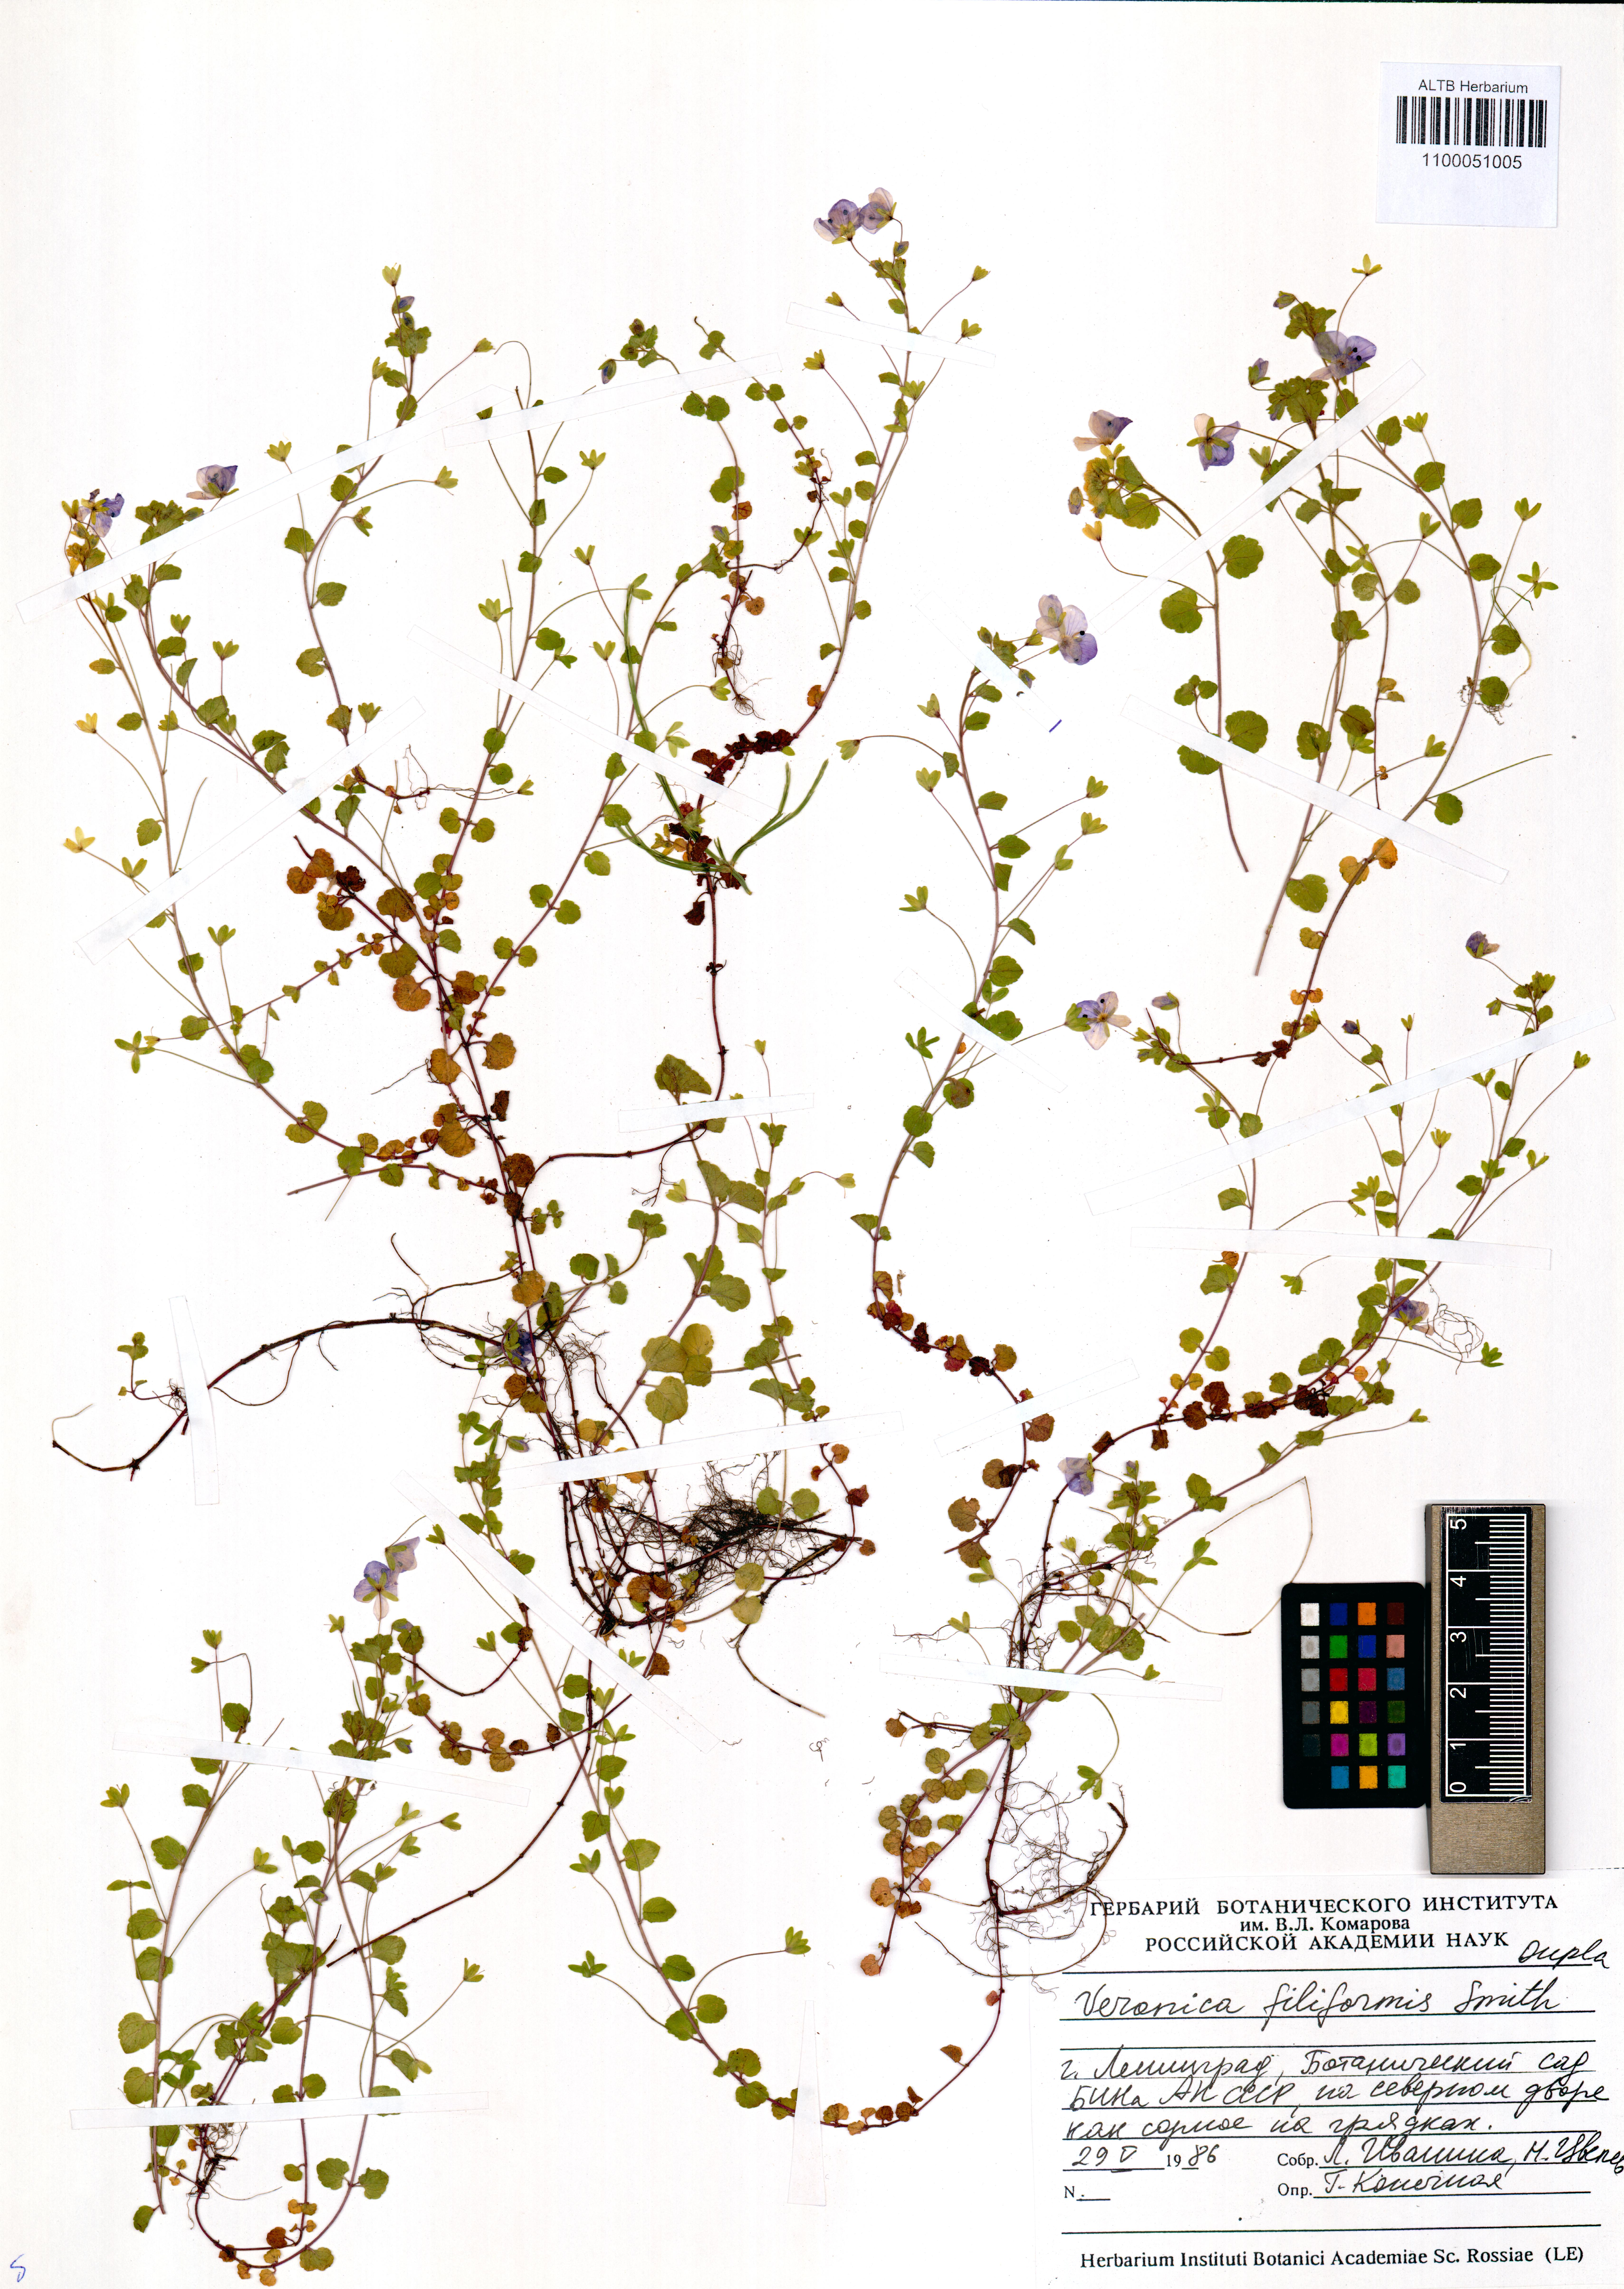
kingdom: Plantae
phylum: Tracheophyta
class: Magnoliopsida
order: Lamiales
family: Plantaginaceae
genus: Veronica
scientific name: Veronica filiformis
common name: Slender speedwell
